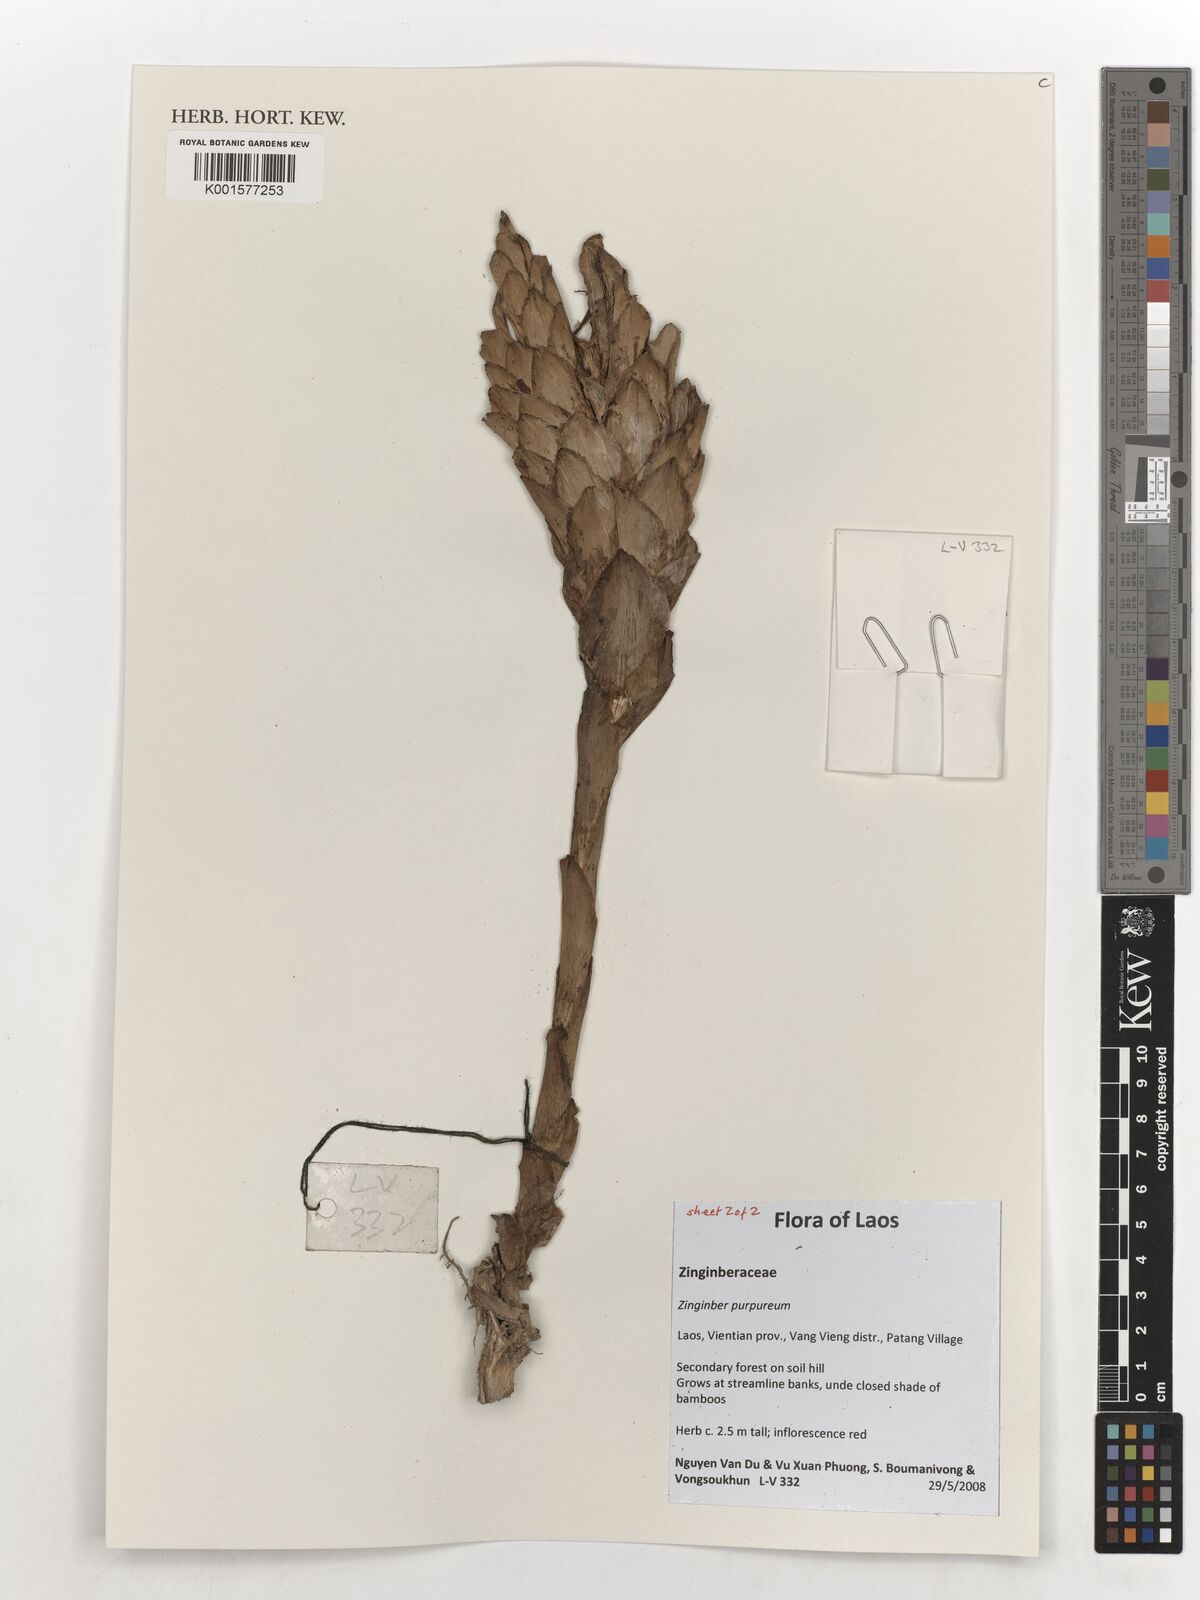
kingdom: Plantae
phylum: Tracheophyta
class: Liliopsida
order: Zingiberales
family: Zingiberaceae
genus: Zingiber
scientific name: Zingiber purpureum
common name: Cassumunar ginger
